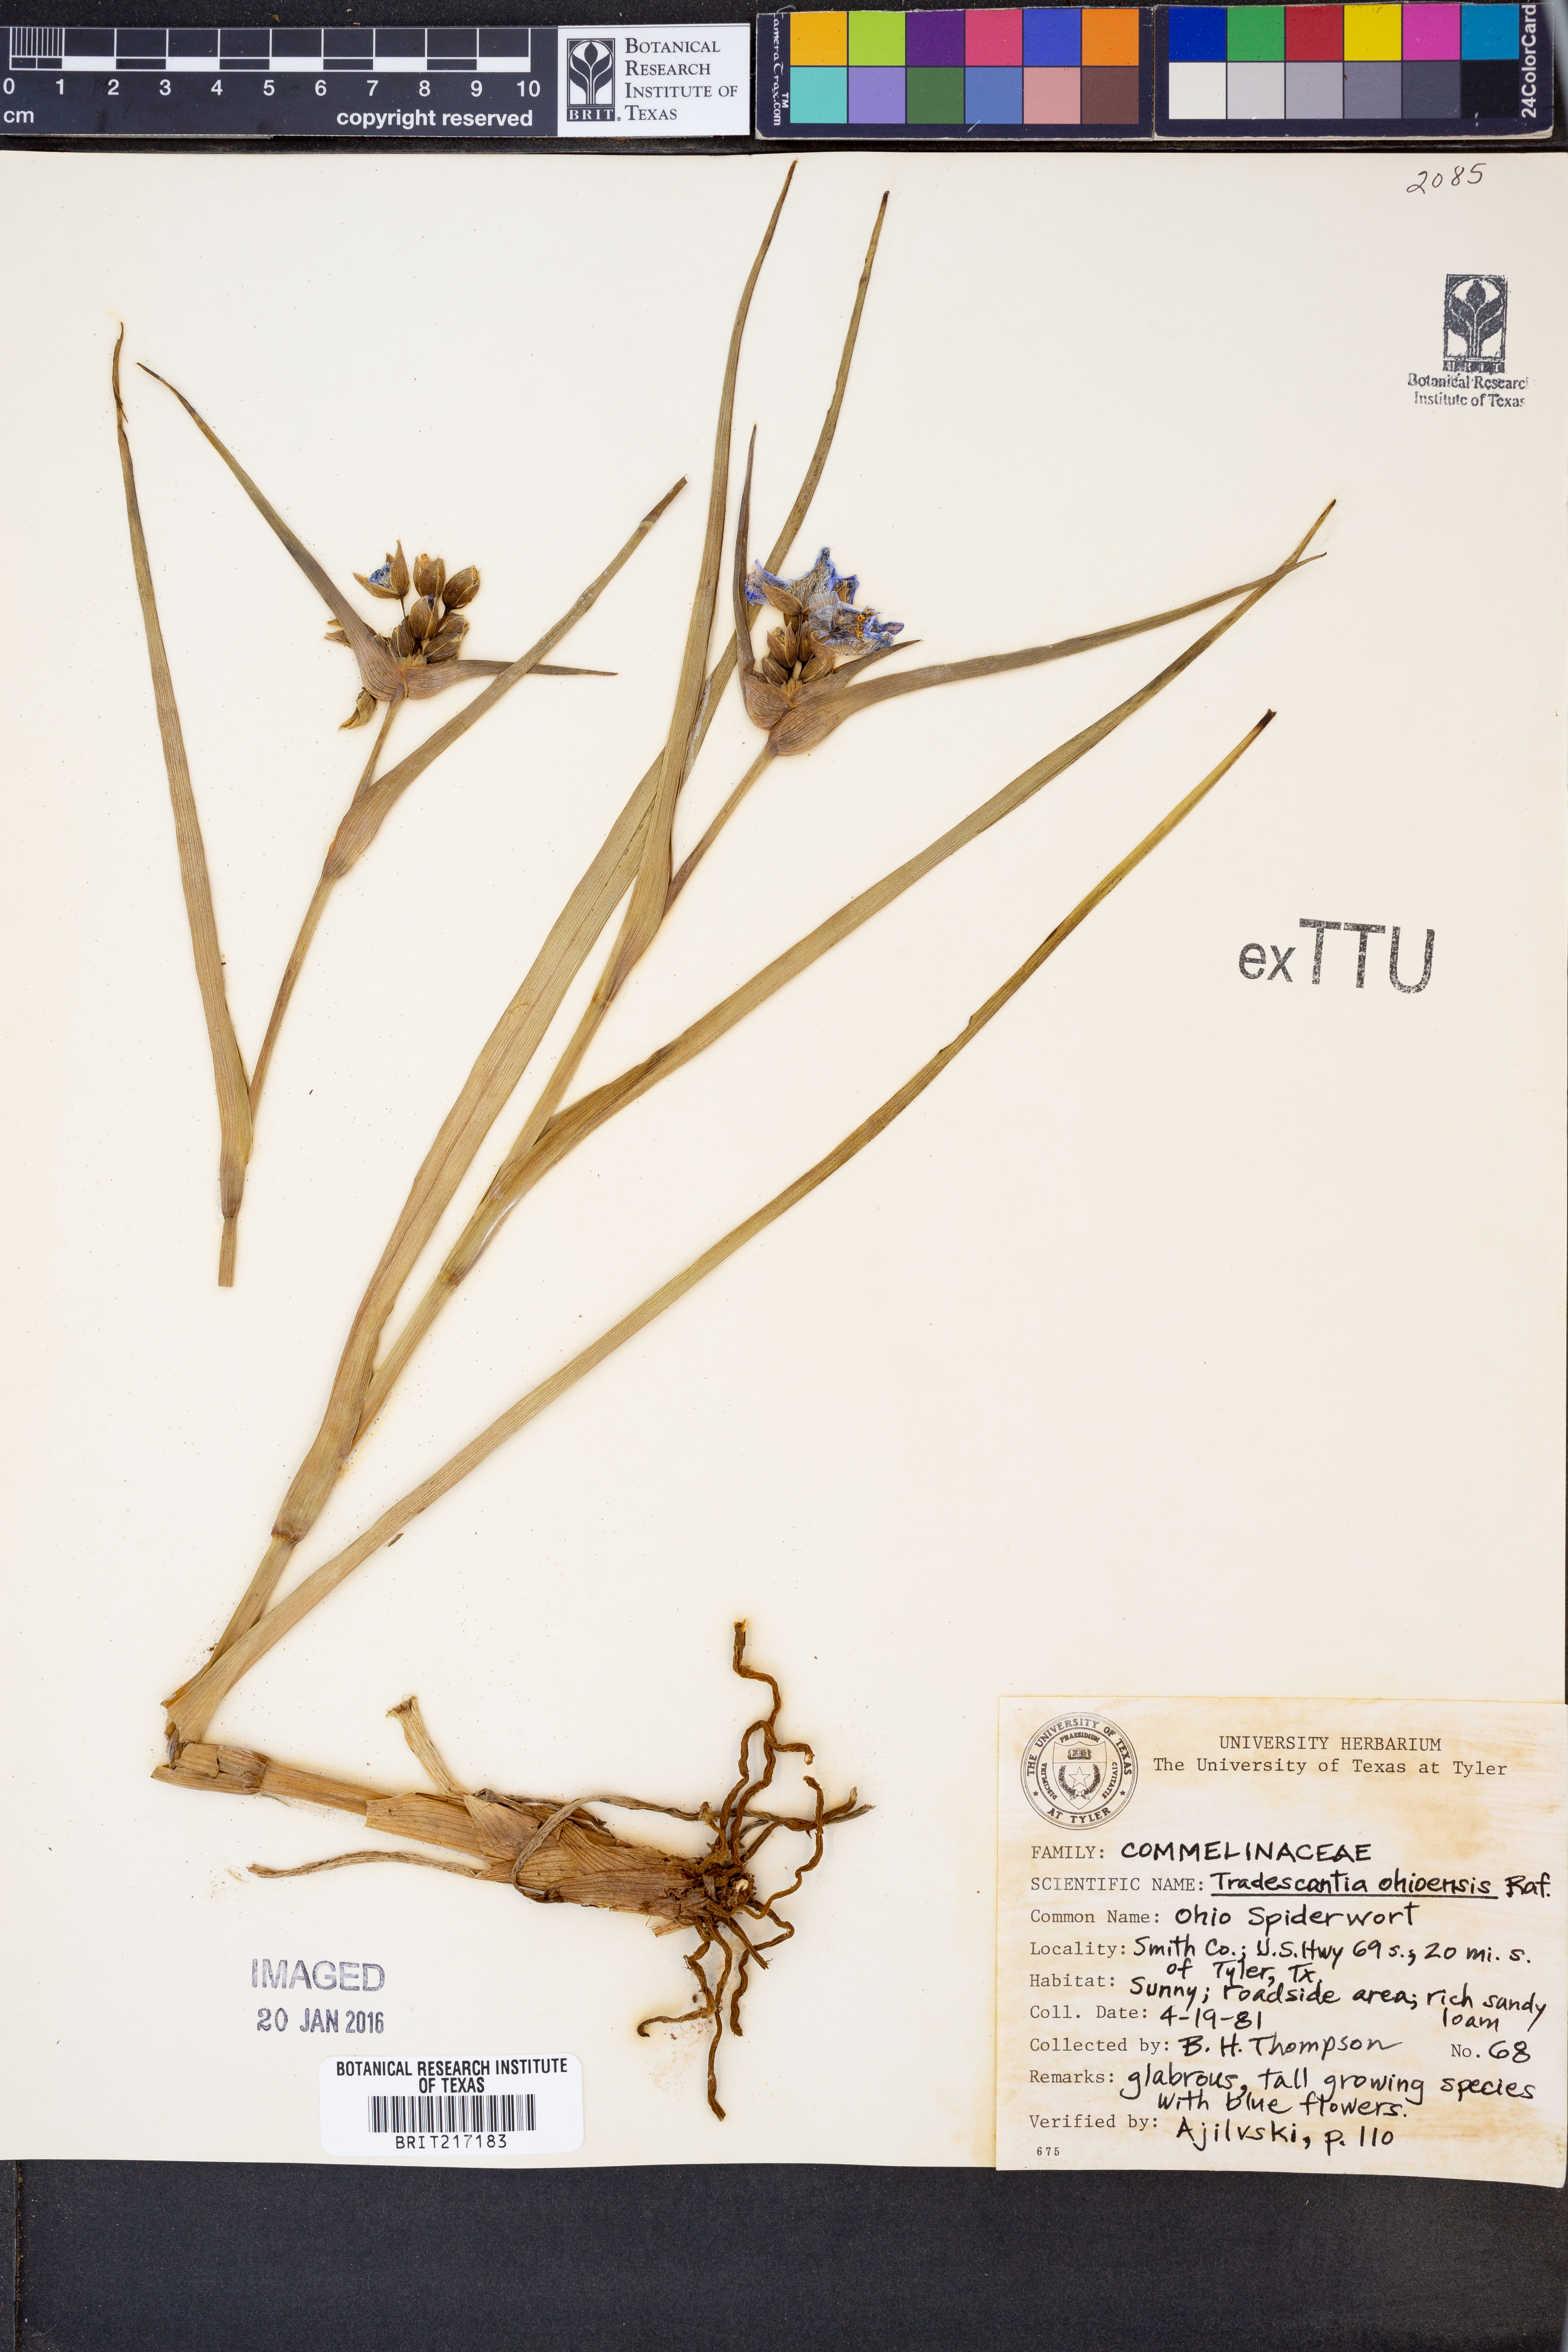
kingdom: Plantae
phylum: Tracheophyta
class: Liliopsida
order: Commelinales
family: Commelinaceae
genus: Tradescantia
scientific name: Tradescantia ohiensis
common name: Ohio spiderwort
